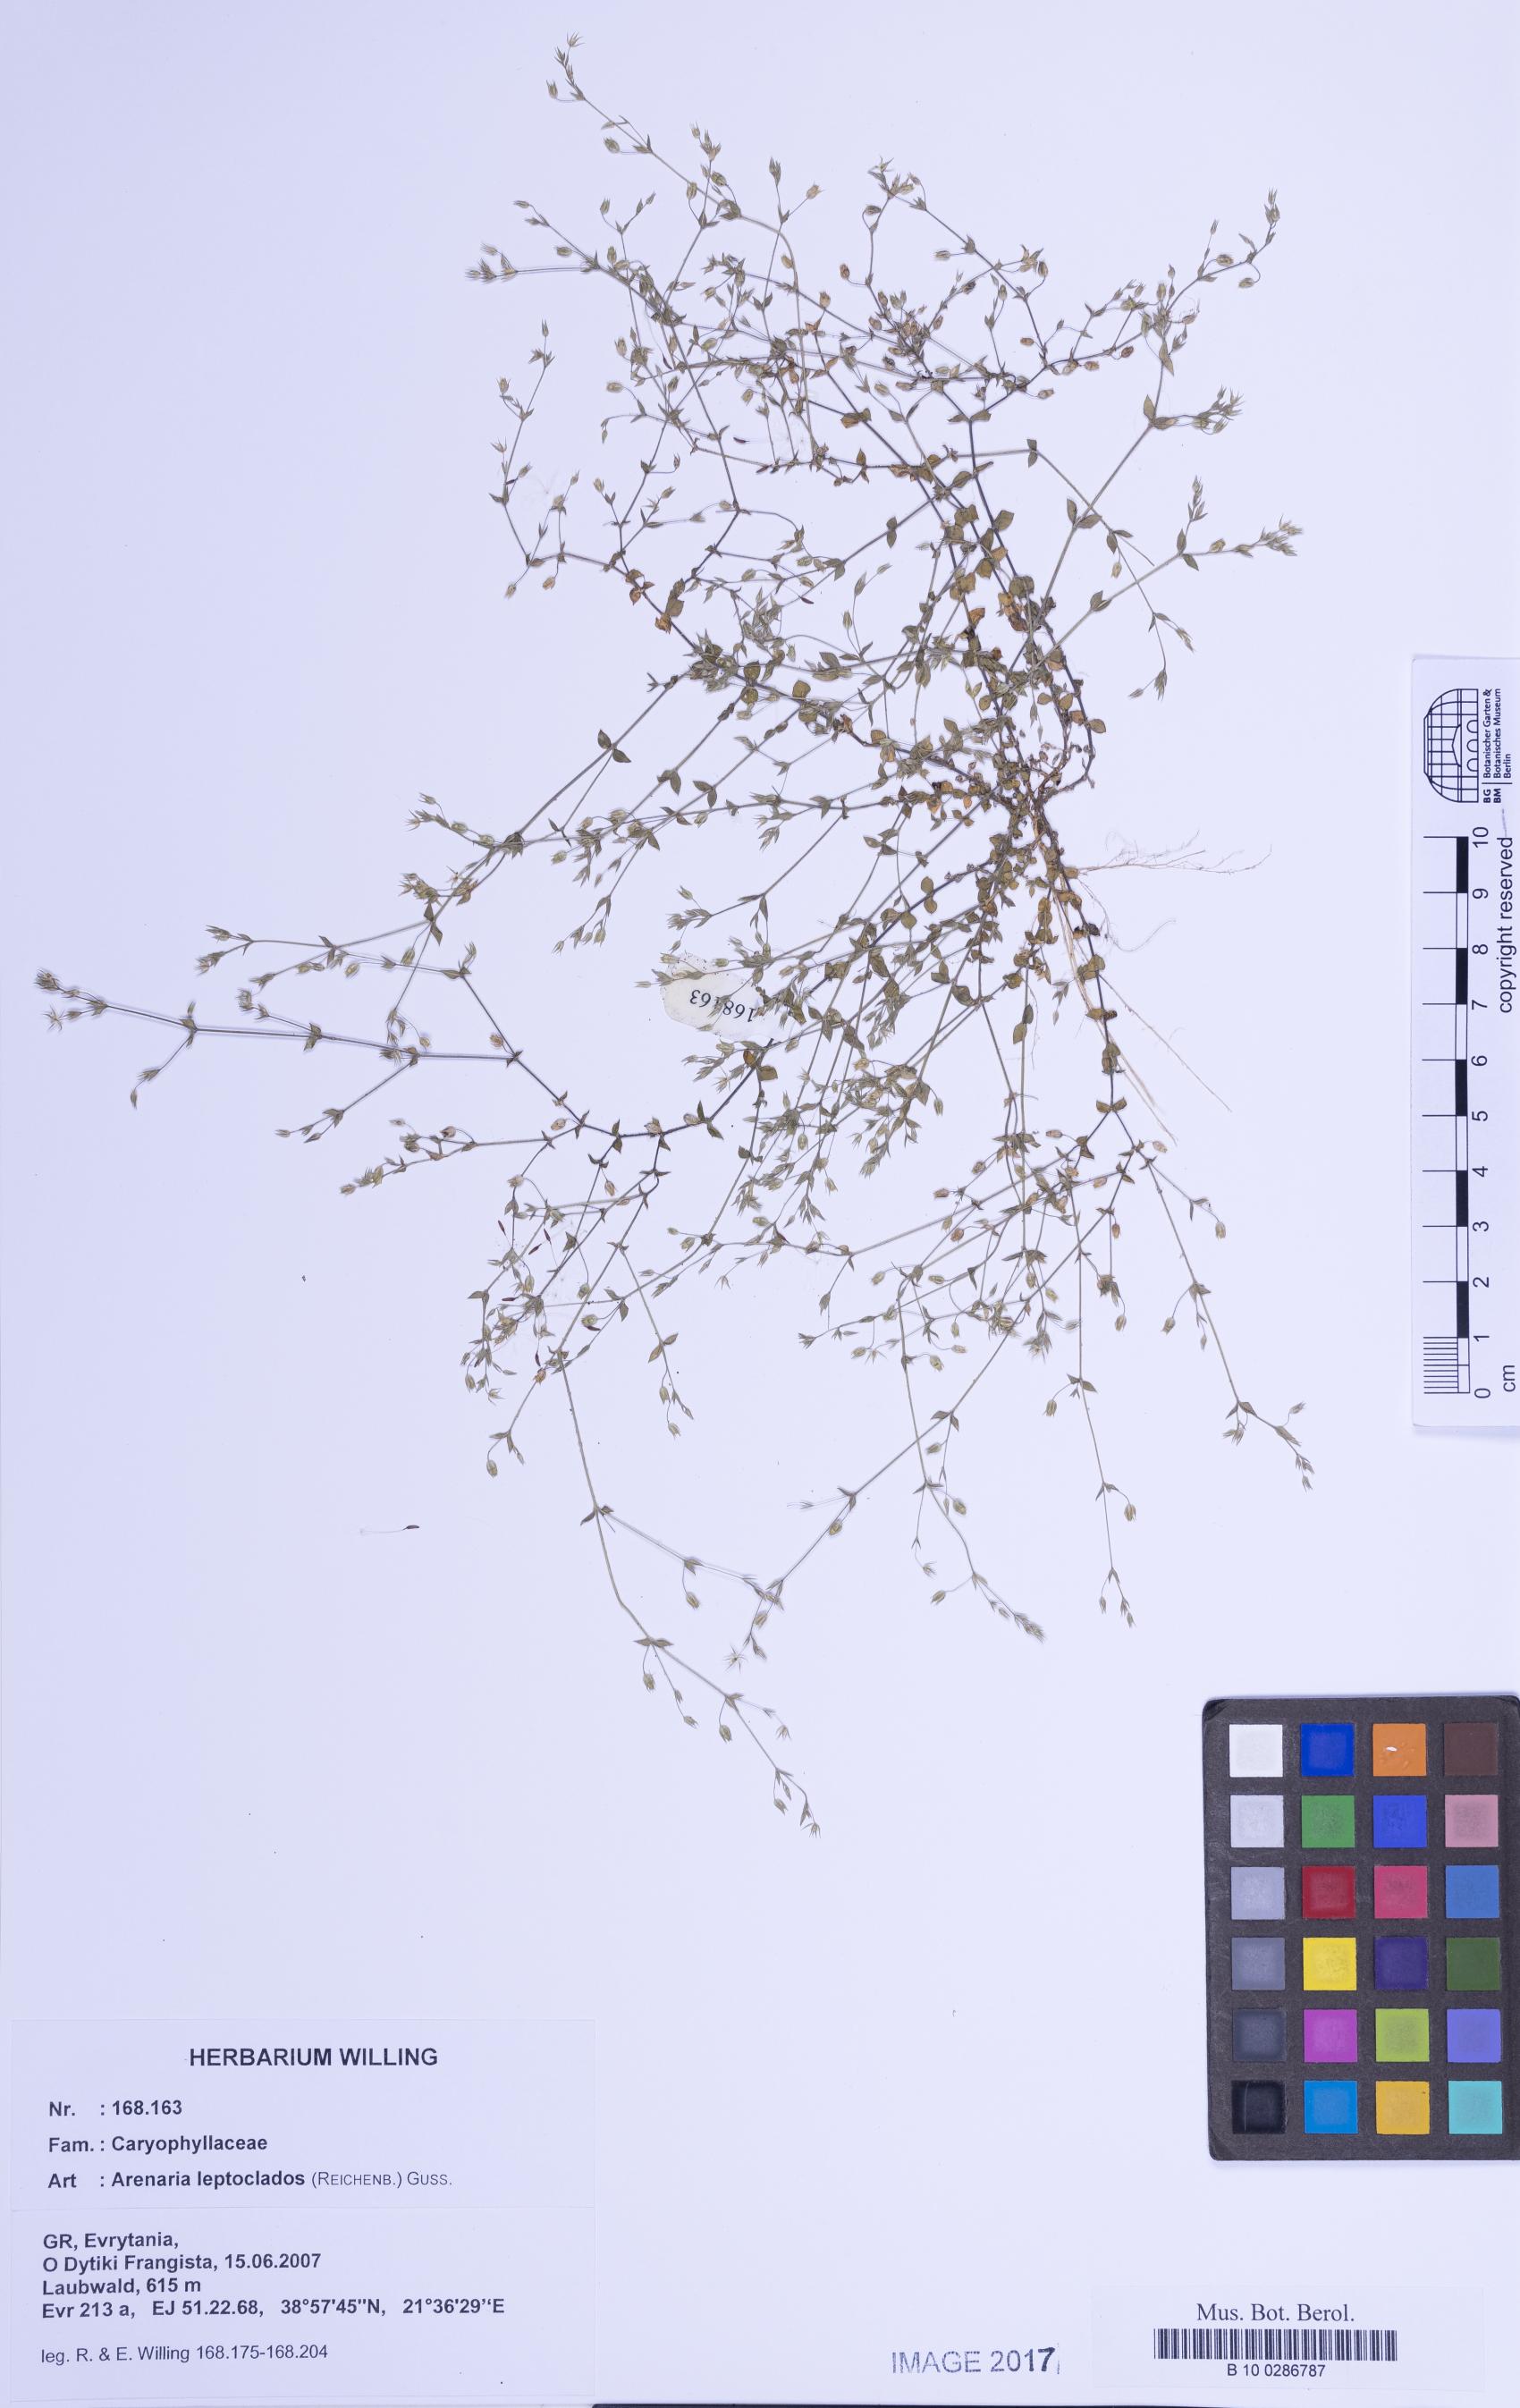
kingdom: Plantae
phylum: Tracheophyta
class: Magnoliopsida
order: Caryophyllales
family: Caryophyllaceae
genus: Arenaria
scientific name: Arenaria leptoclados
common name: Thyme-leaved sandwort
